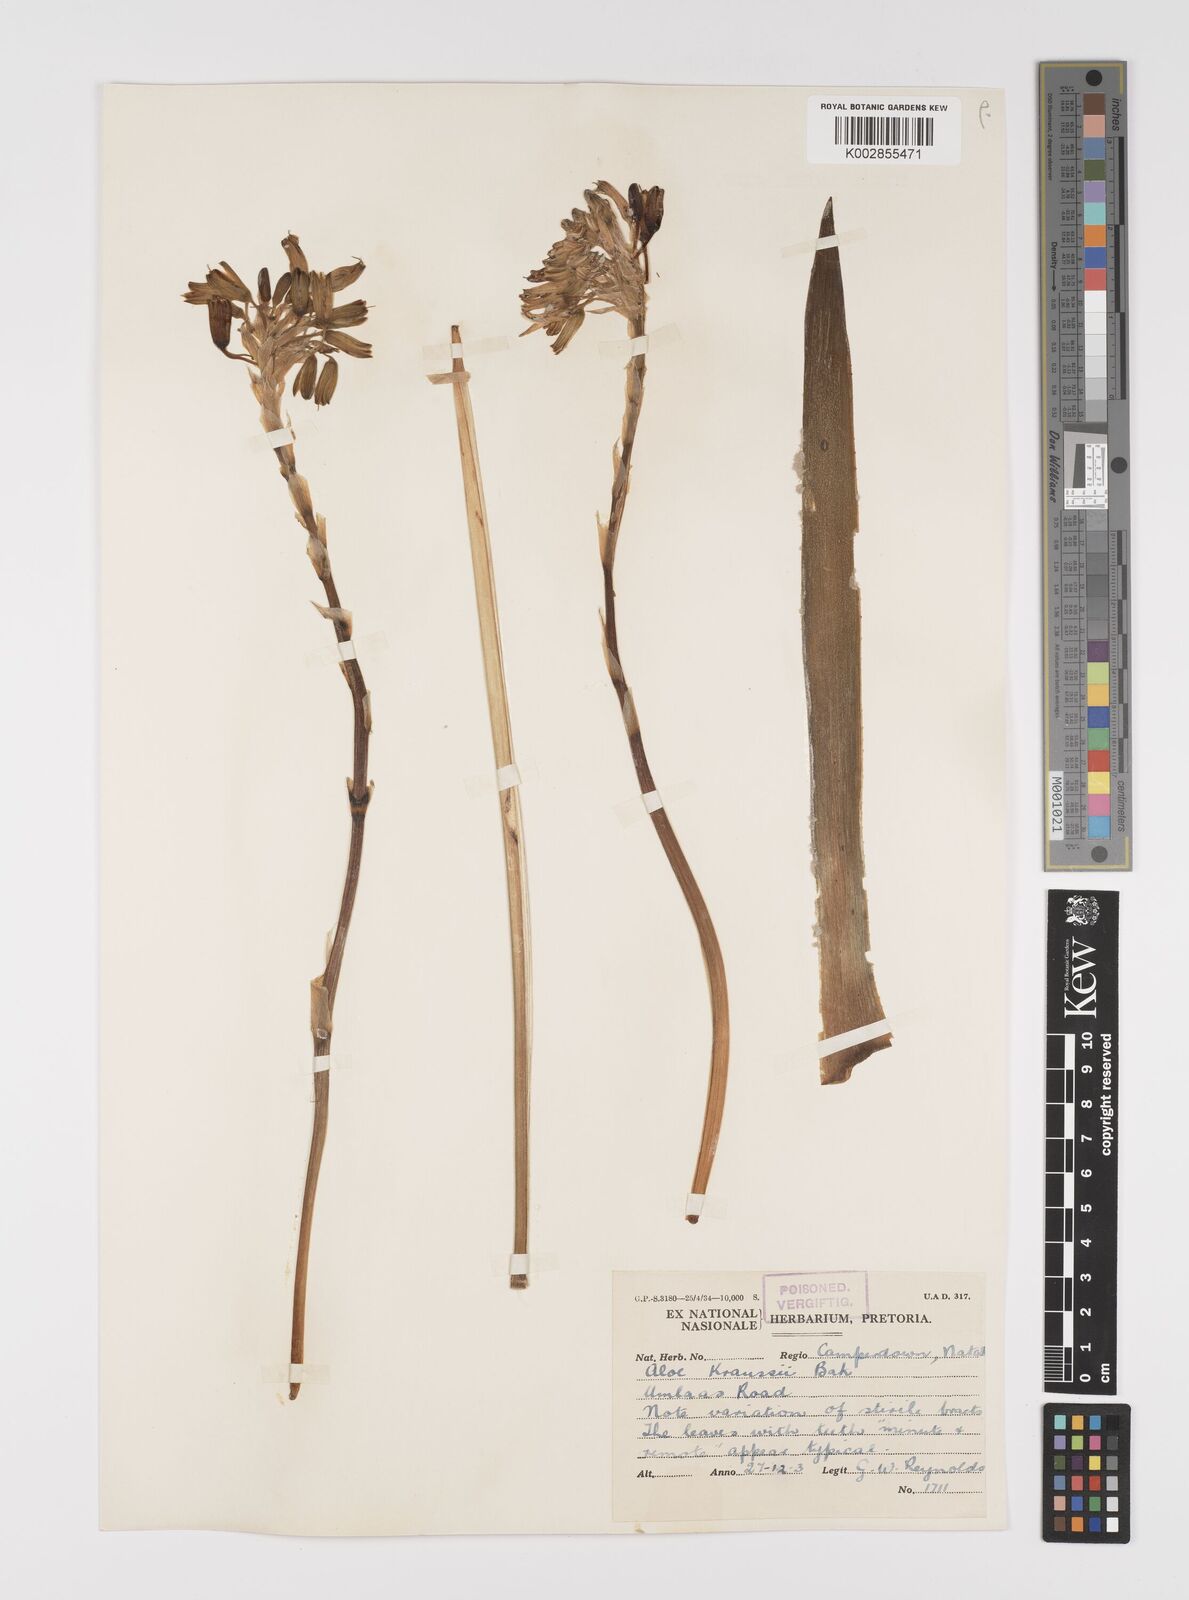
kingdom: Plantae
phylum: Tracheophyta
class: Liliopsida
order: Asparagales
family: Asphodelaceae
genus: Aloe
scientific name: Aloe kraussii
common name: Broad-leaved yellow grass aloe
